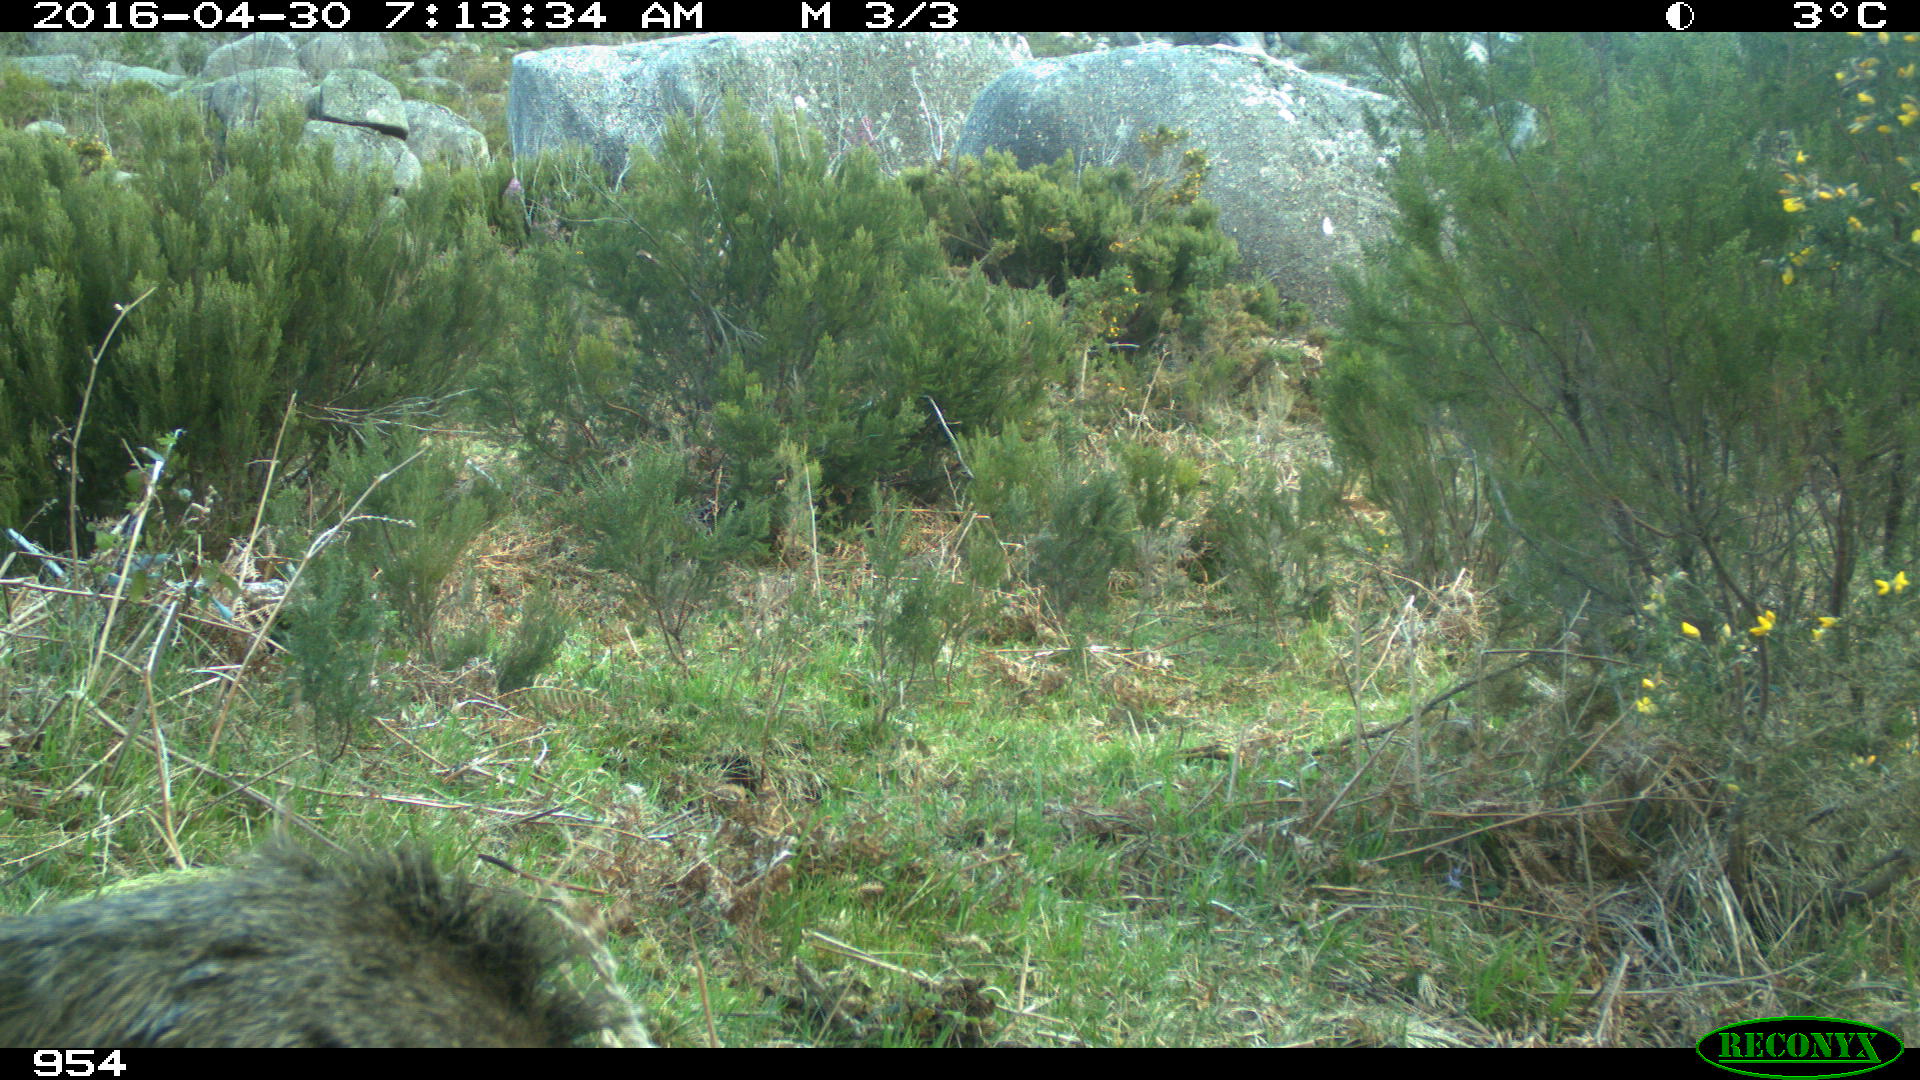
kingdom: Animalia
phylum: Chordata
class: Mammalia
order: Artiodactyla
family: Suidae
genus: Sus
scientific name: Sus scrofa
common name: Wild boar
